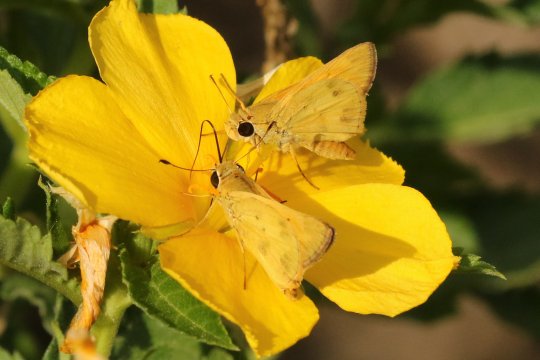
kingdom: Animalia
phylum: Arthropoda
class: Insecta
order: Lepidoptera
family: Hesperiidae
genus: Polites
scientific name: Polites vibex
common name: Whirlabout
